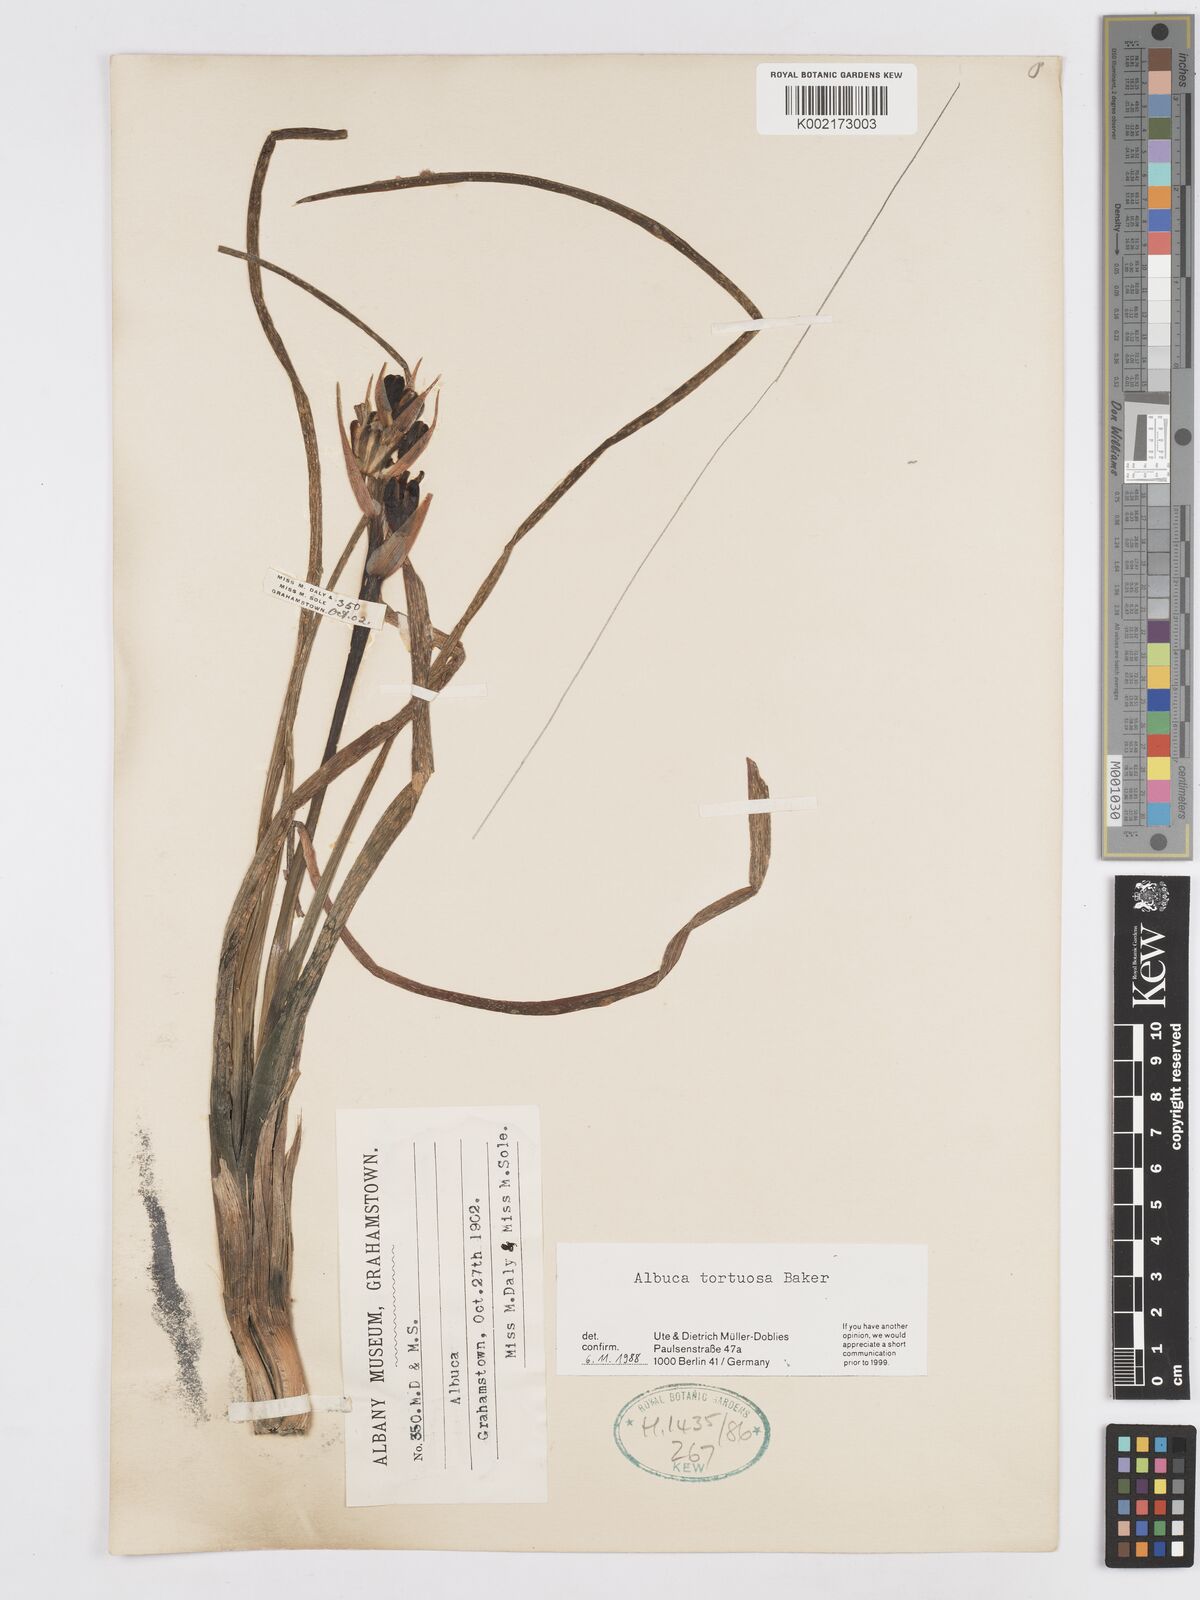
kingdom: Plantae
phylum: Tracheophyta
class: Liliopsida
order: Asparagales
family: Asparagaceae
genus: Albuca
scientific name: Albuca tortuosa
